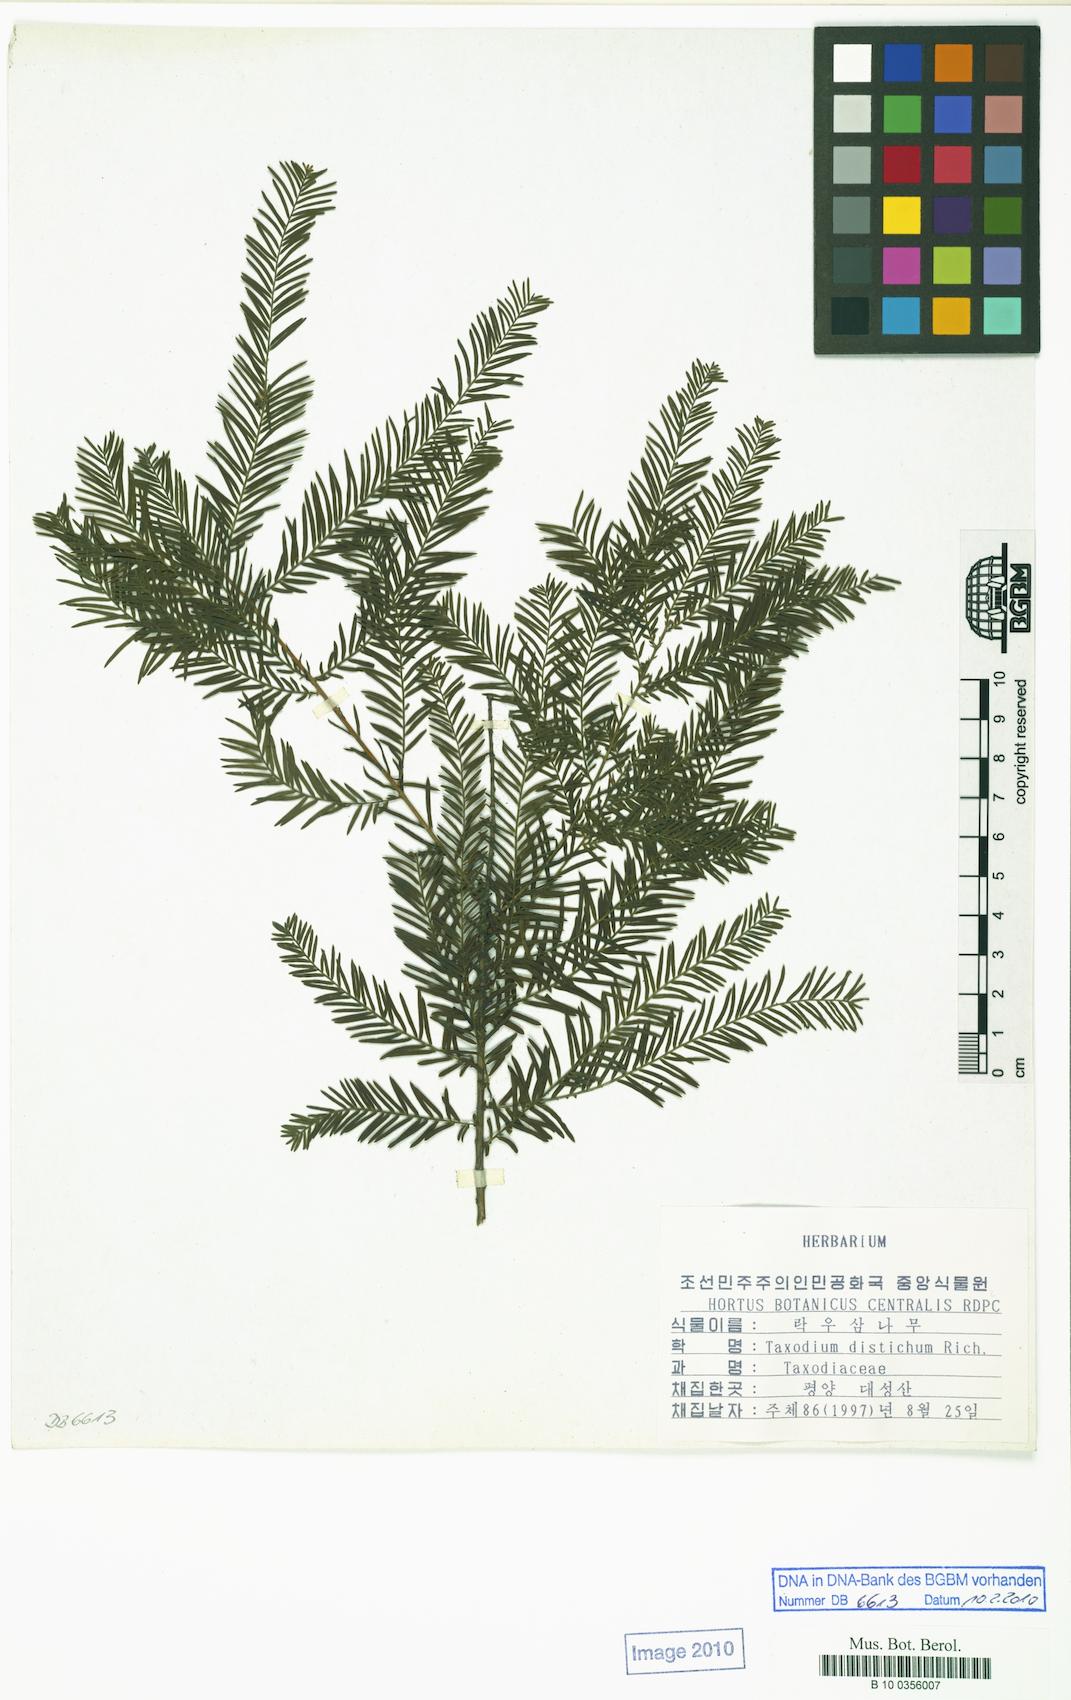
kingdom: Plantae
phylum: Tracheophyta
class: Pinopsida
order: Pinales
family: Cupressaceae
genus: Taxodium
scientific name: Taxodium distichum
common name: Bald cypress
